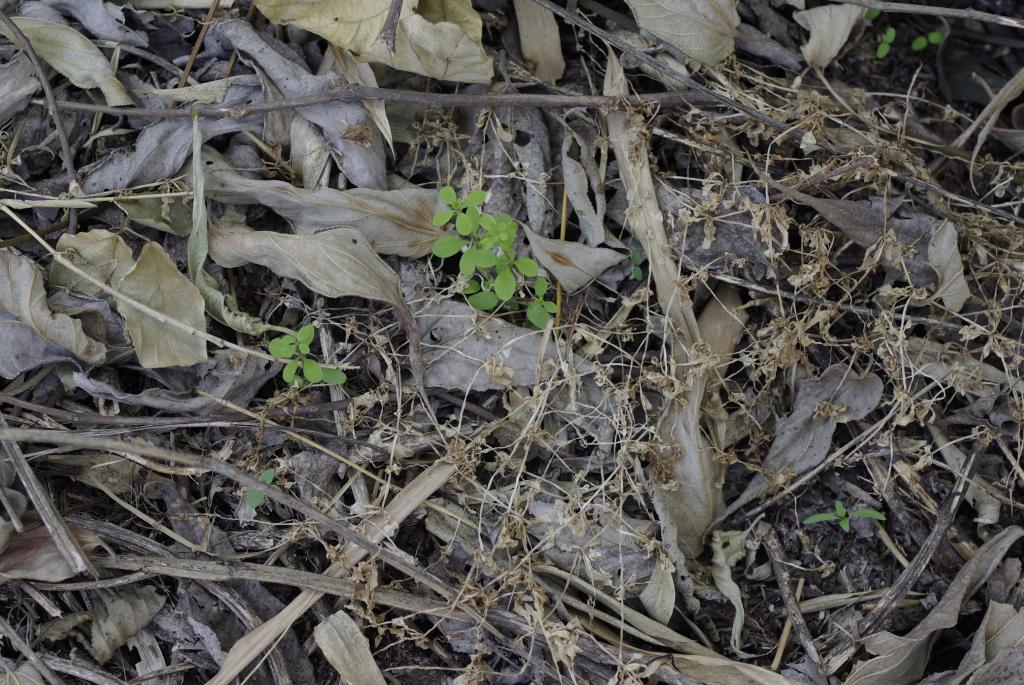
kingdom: Plantae
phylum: Tracheophyta
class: Magnoliopsida
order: Gentianales
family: Rubiaceae
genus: Galium
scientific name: Galium spurium
